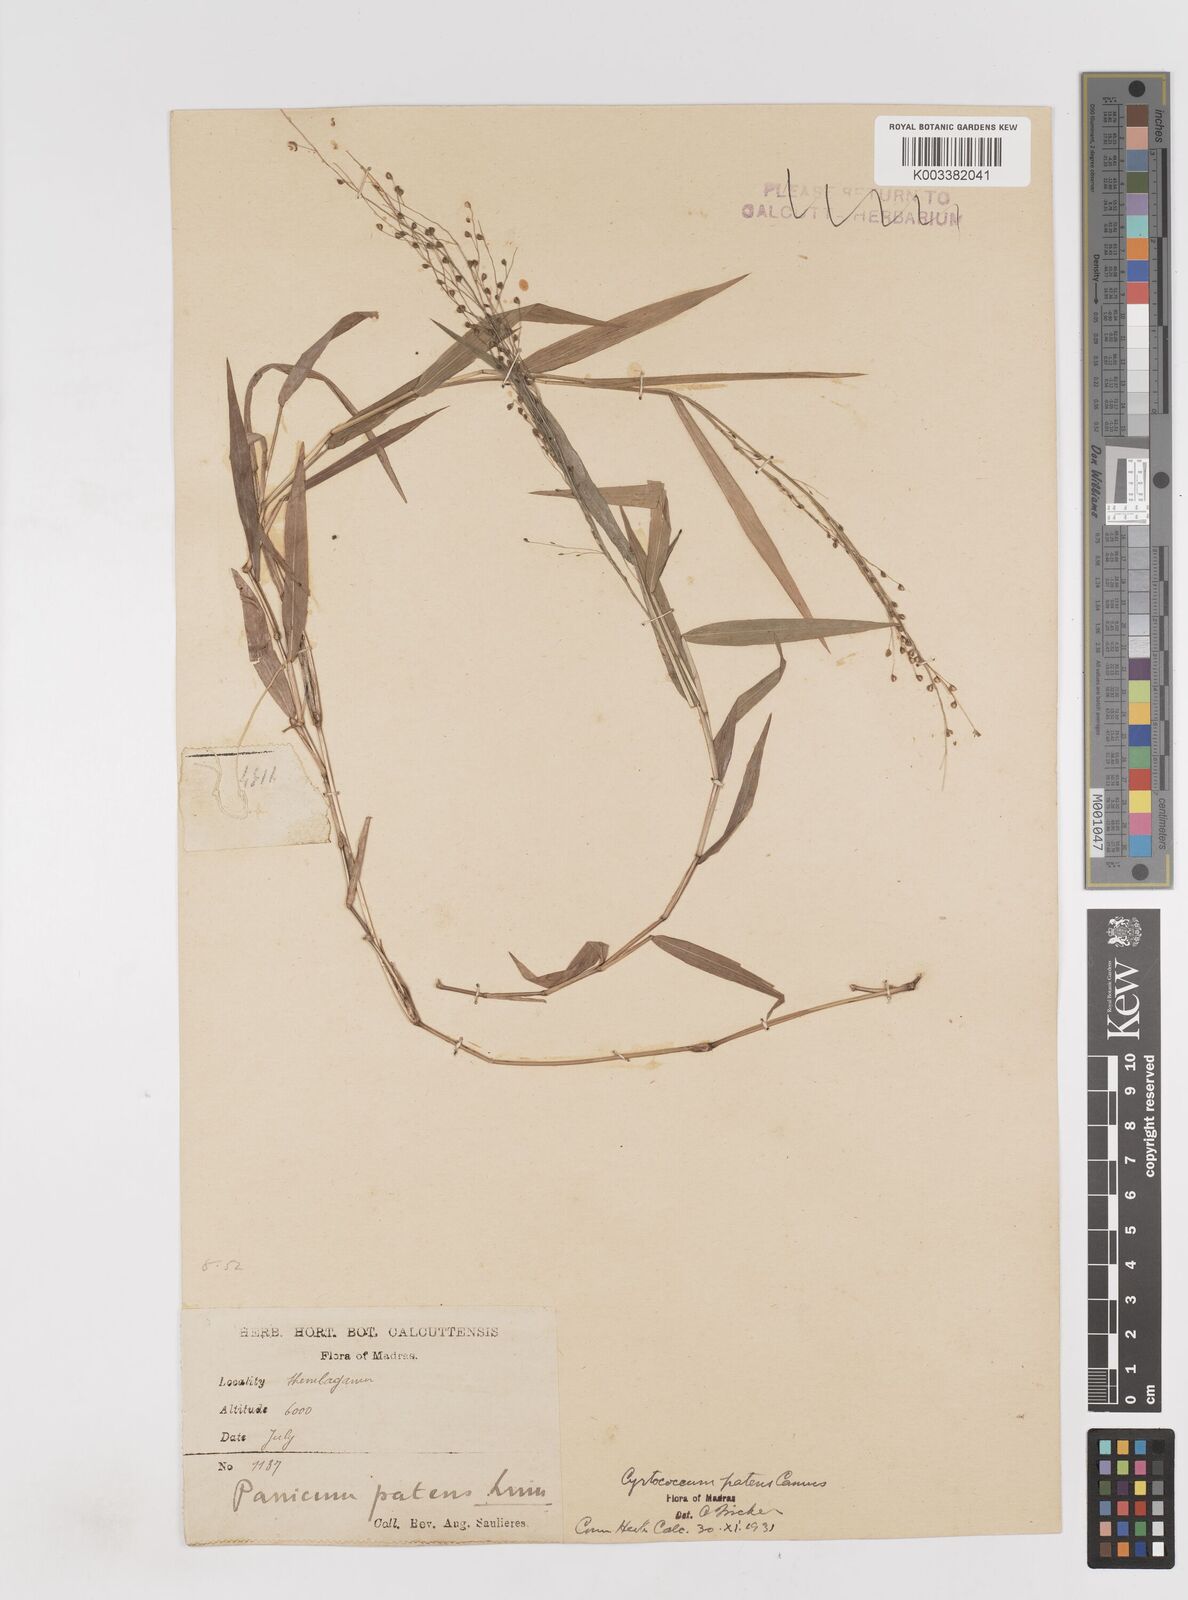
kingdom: Plantae
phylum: Tracheophyta
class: Liliopsida
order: Poales
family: Poaceae
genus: Cyrtococcum
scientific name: Cyrtococcum deccanense
